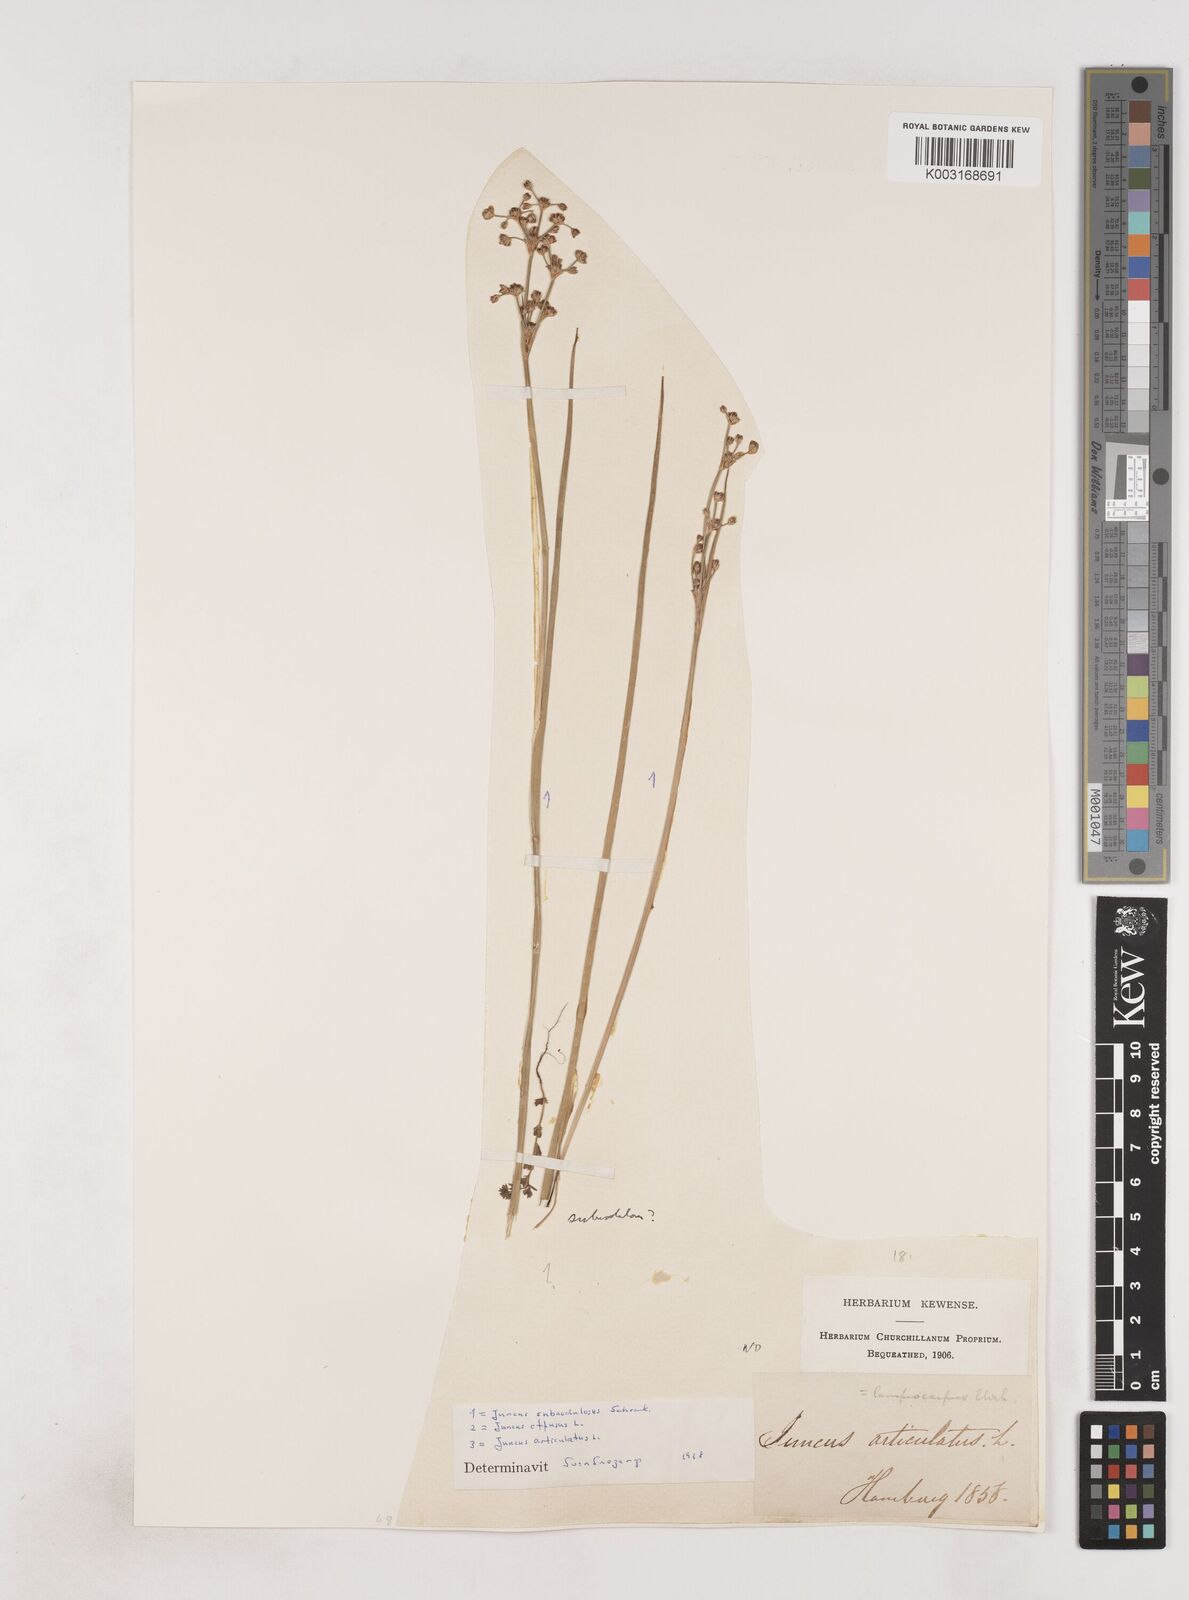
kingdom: Plantae
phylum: Tracheophyta
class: Liliopsida
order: Poales
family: Juncaceae
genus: Juncus
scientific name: Juncus subnodulosus
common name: Blunt-flowered rush
